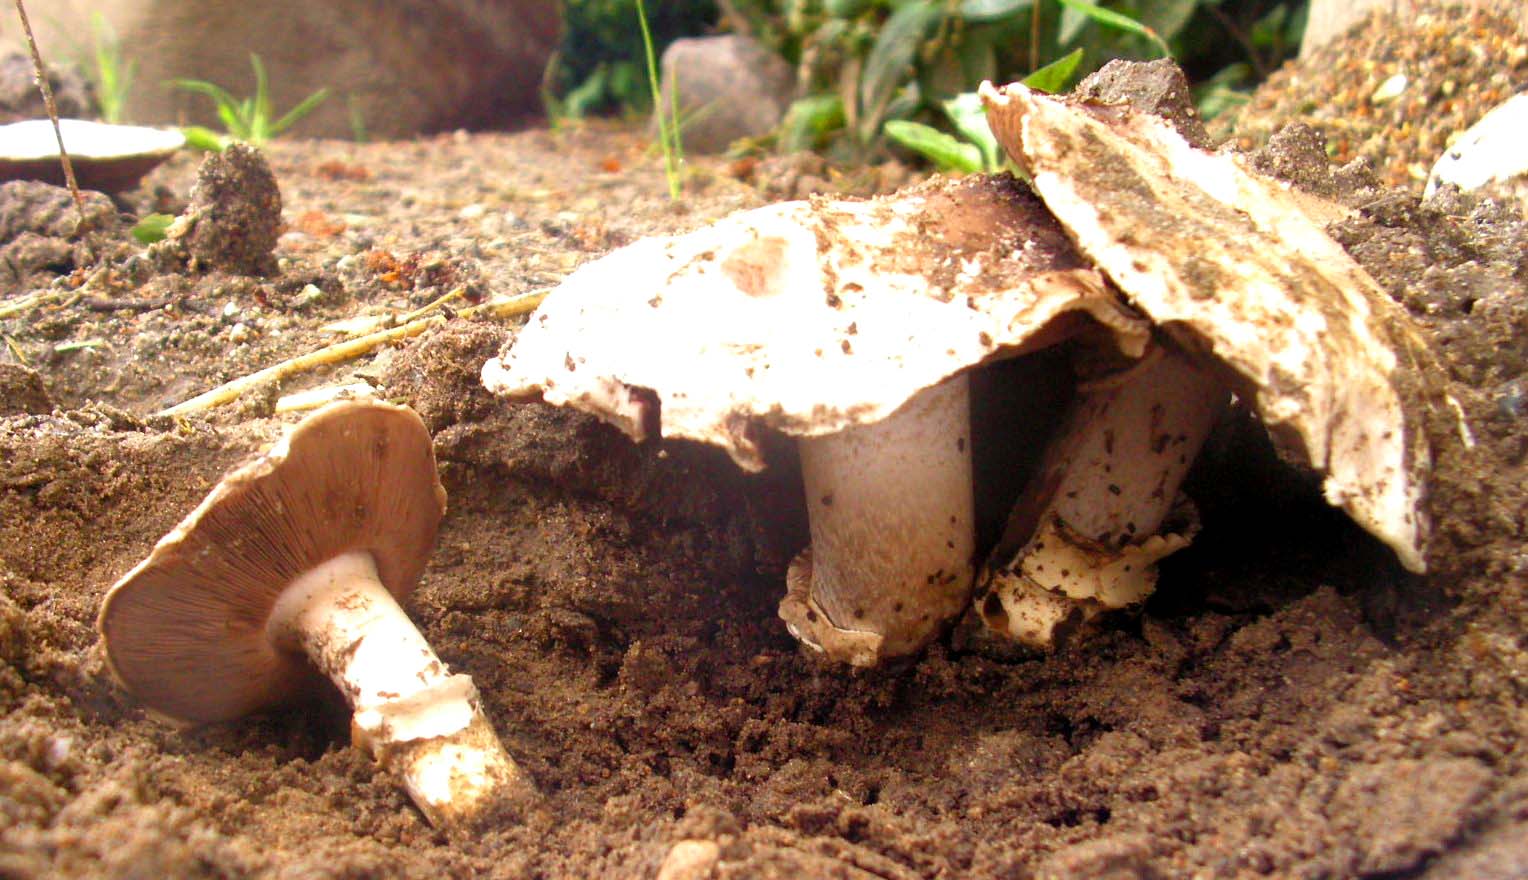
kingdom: Fungi
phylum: Basidiomycota
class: Agaricomycetes
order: Agaricales
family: Agaricaceae
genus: Agaricus
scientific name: Agaricus bitorquis
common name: vej-champignon
